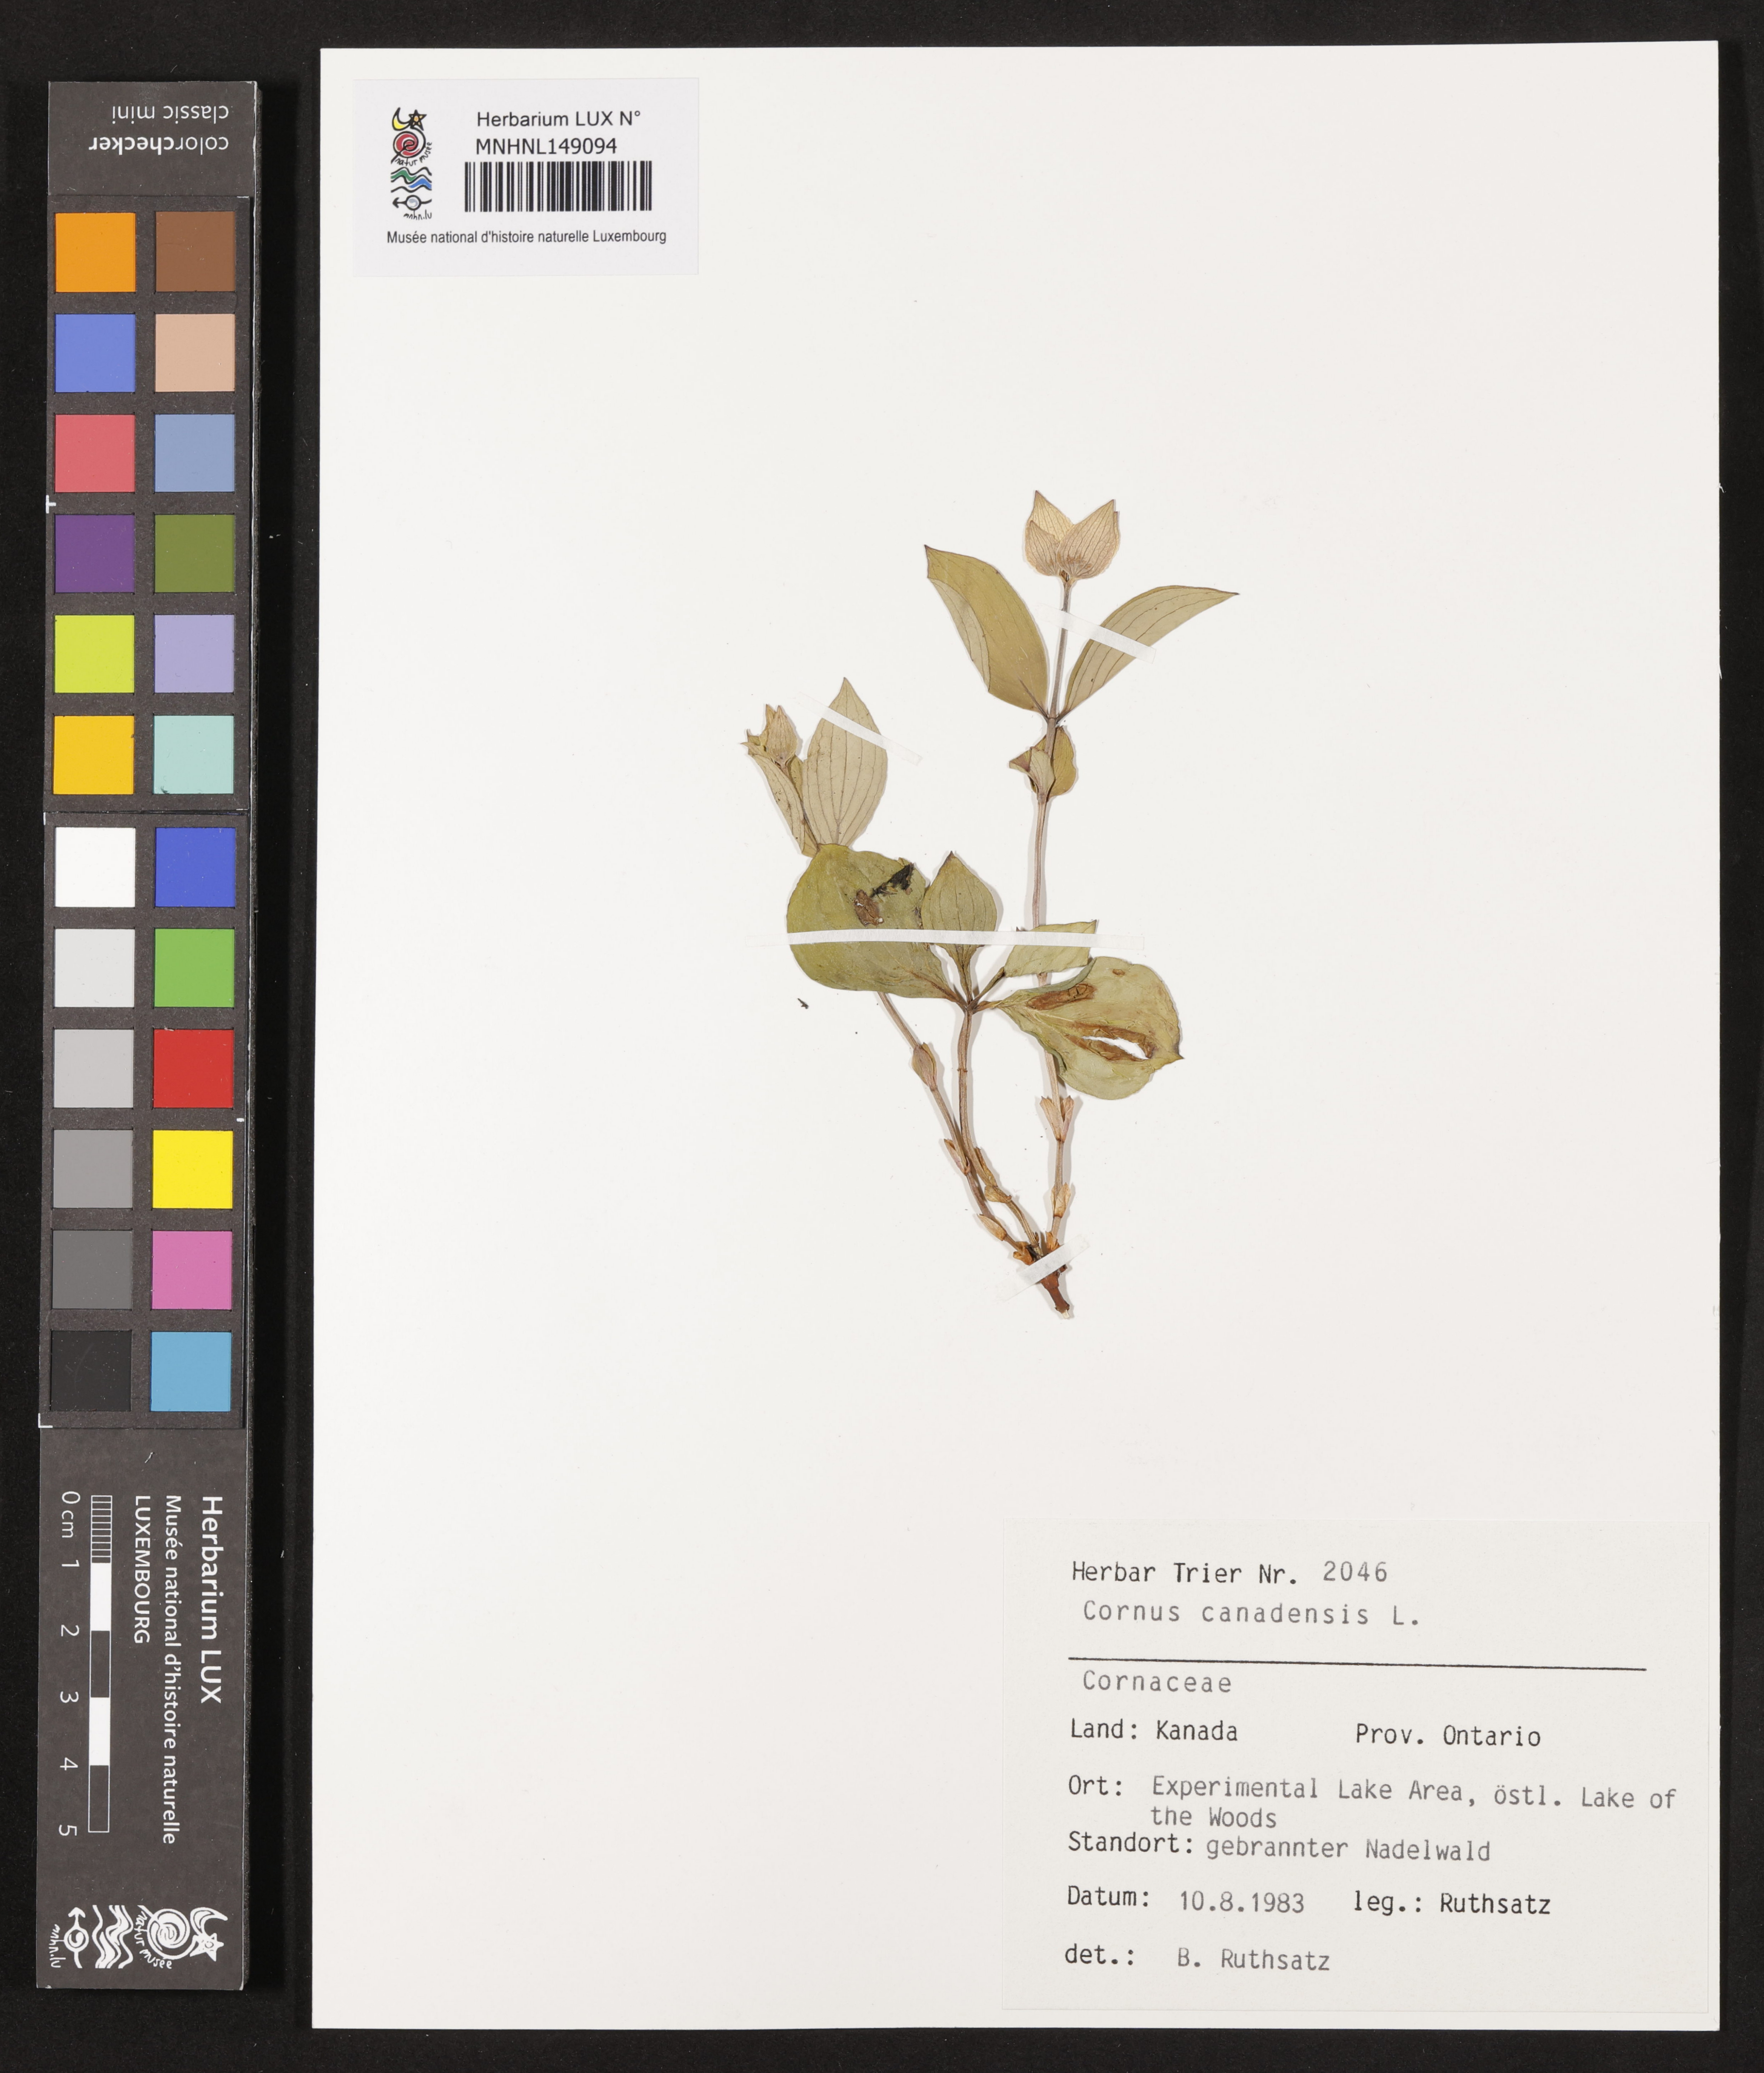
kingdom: Plantae
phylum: Tracheophyta
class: Magnoliopsida
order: Cornales
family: Cornaceae
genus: Cornus
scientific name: Cornus canadensis
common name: Creeping dogwood
